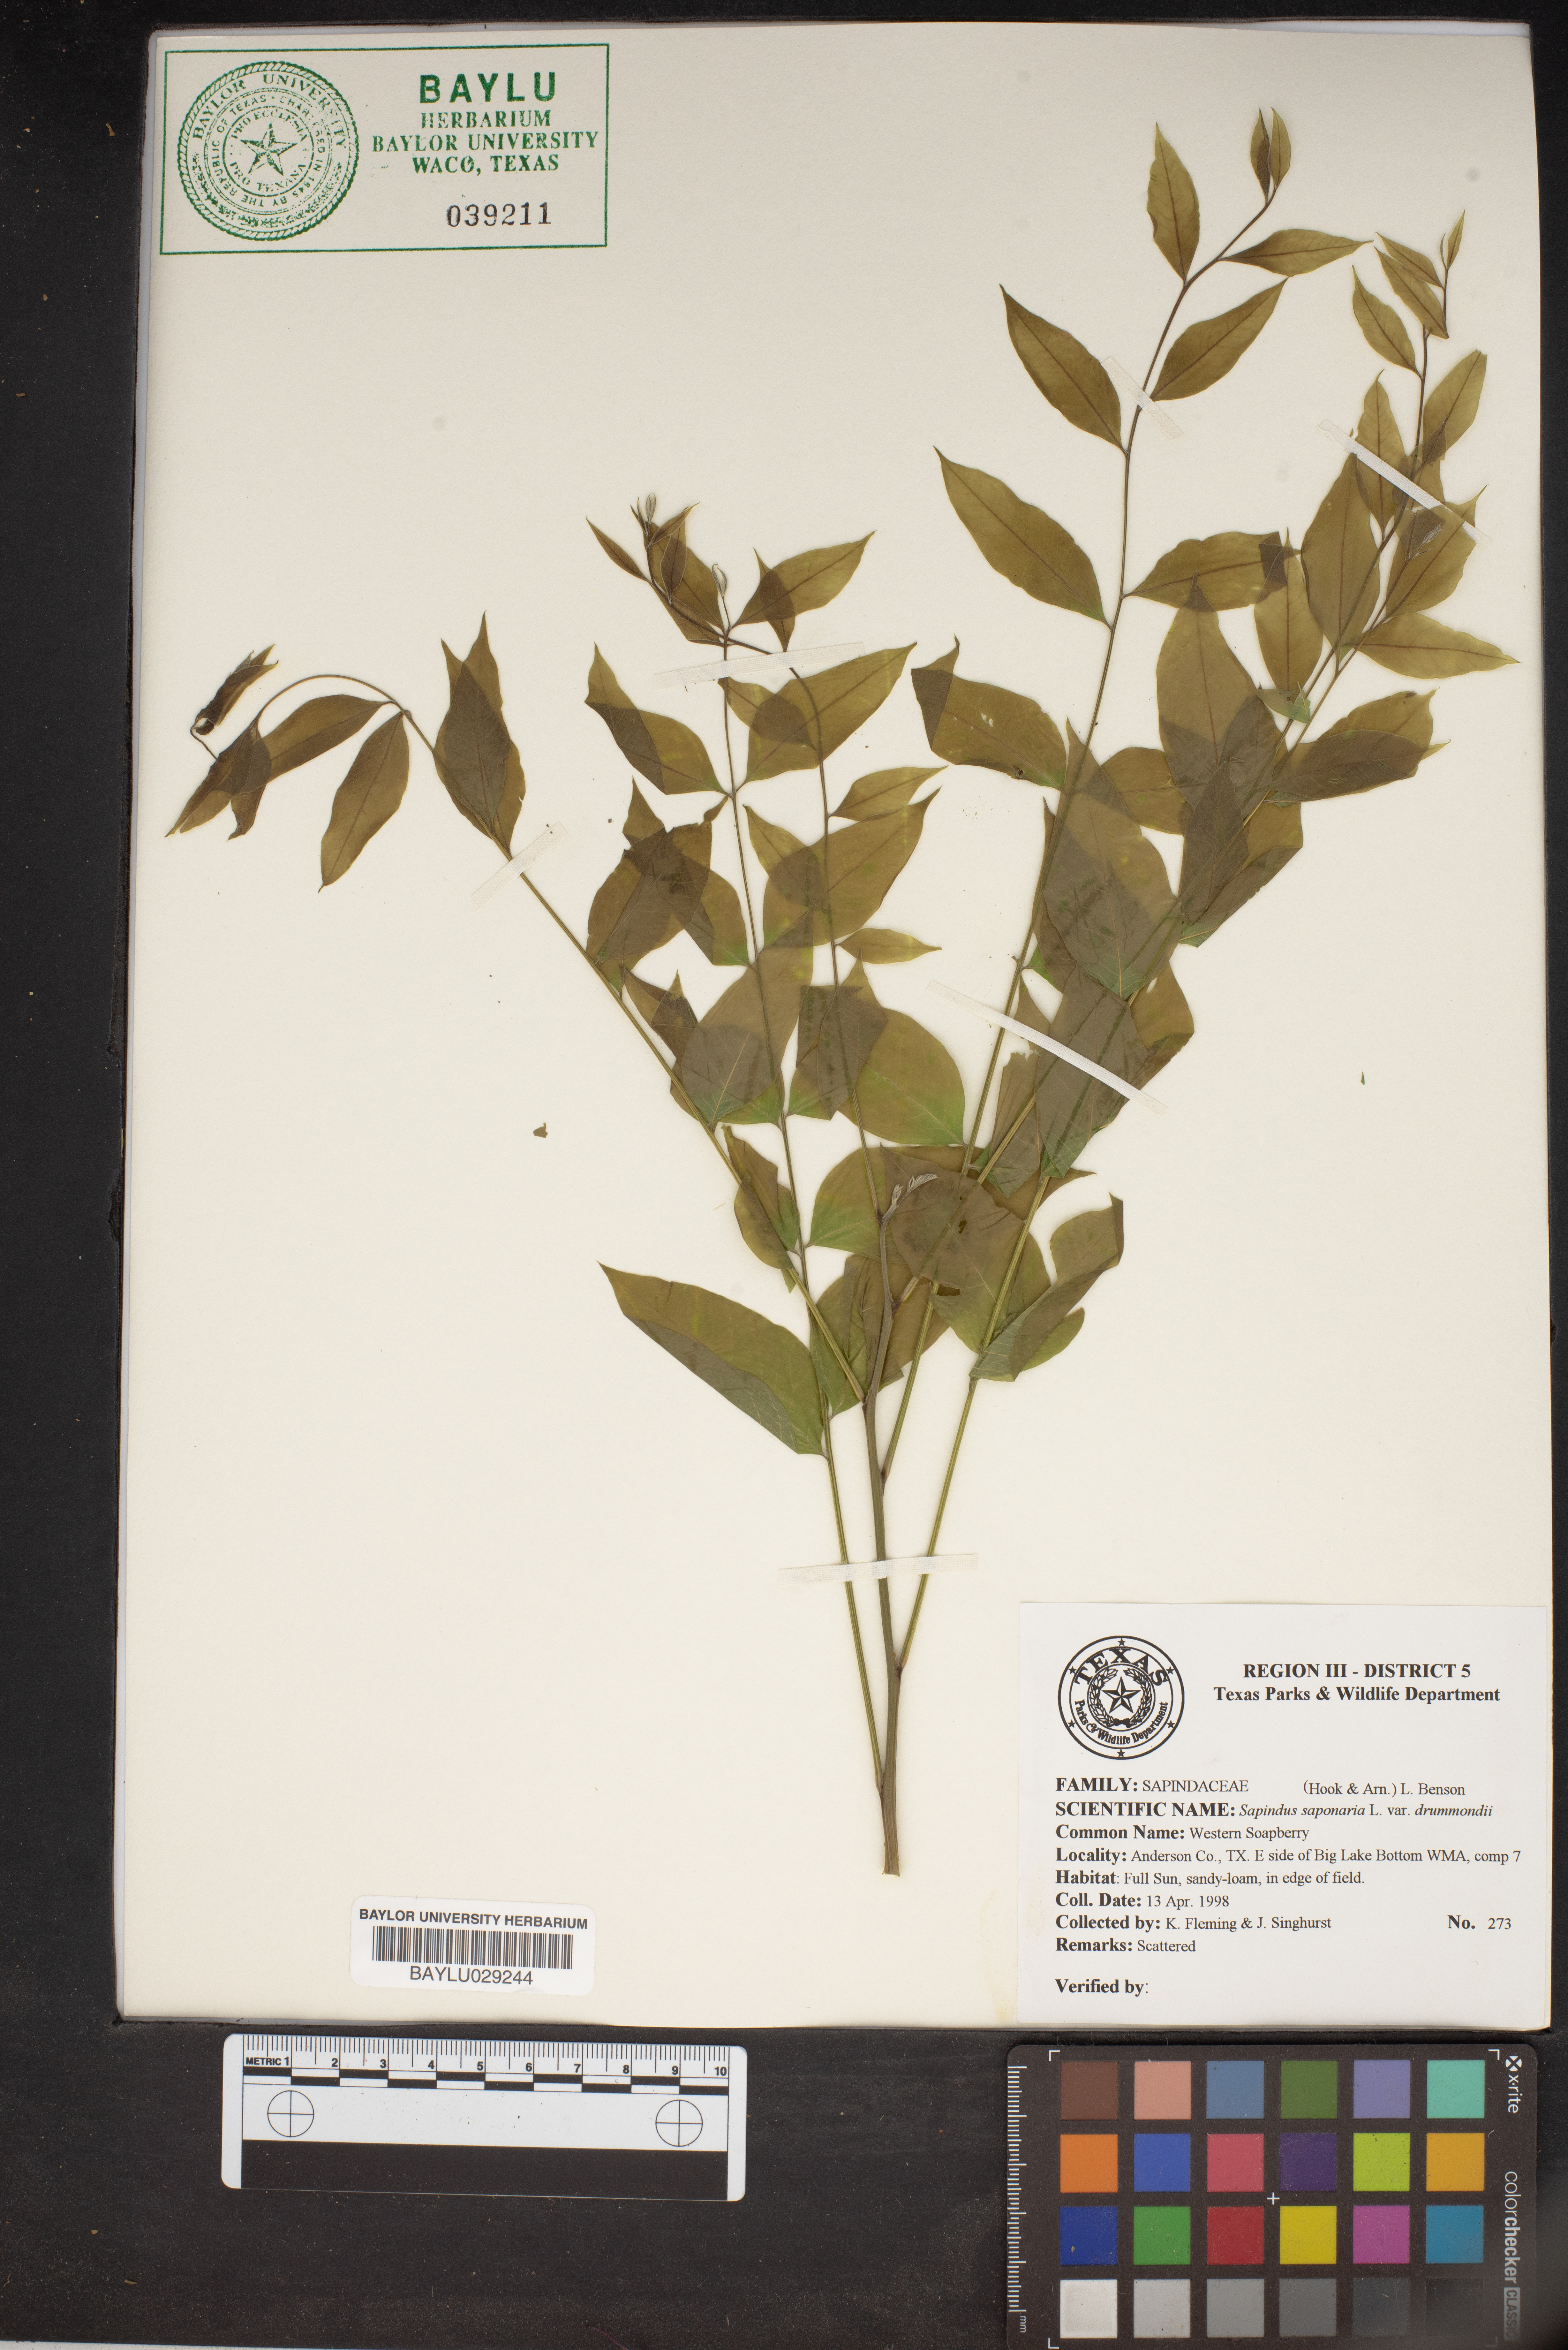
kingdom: Plantae
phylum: Tracheophyta
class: Magnoliopsida
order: Sapindales
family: Sapindaceae
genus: Sapindus
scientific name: Sapindus drummondii
